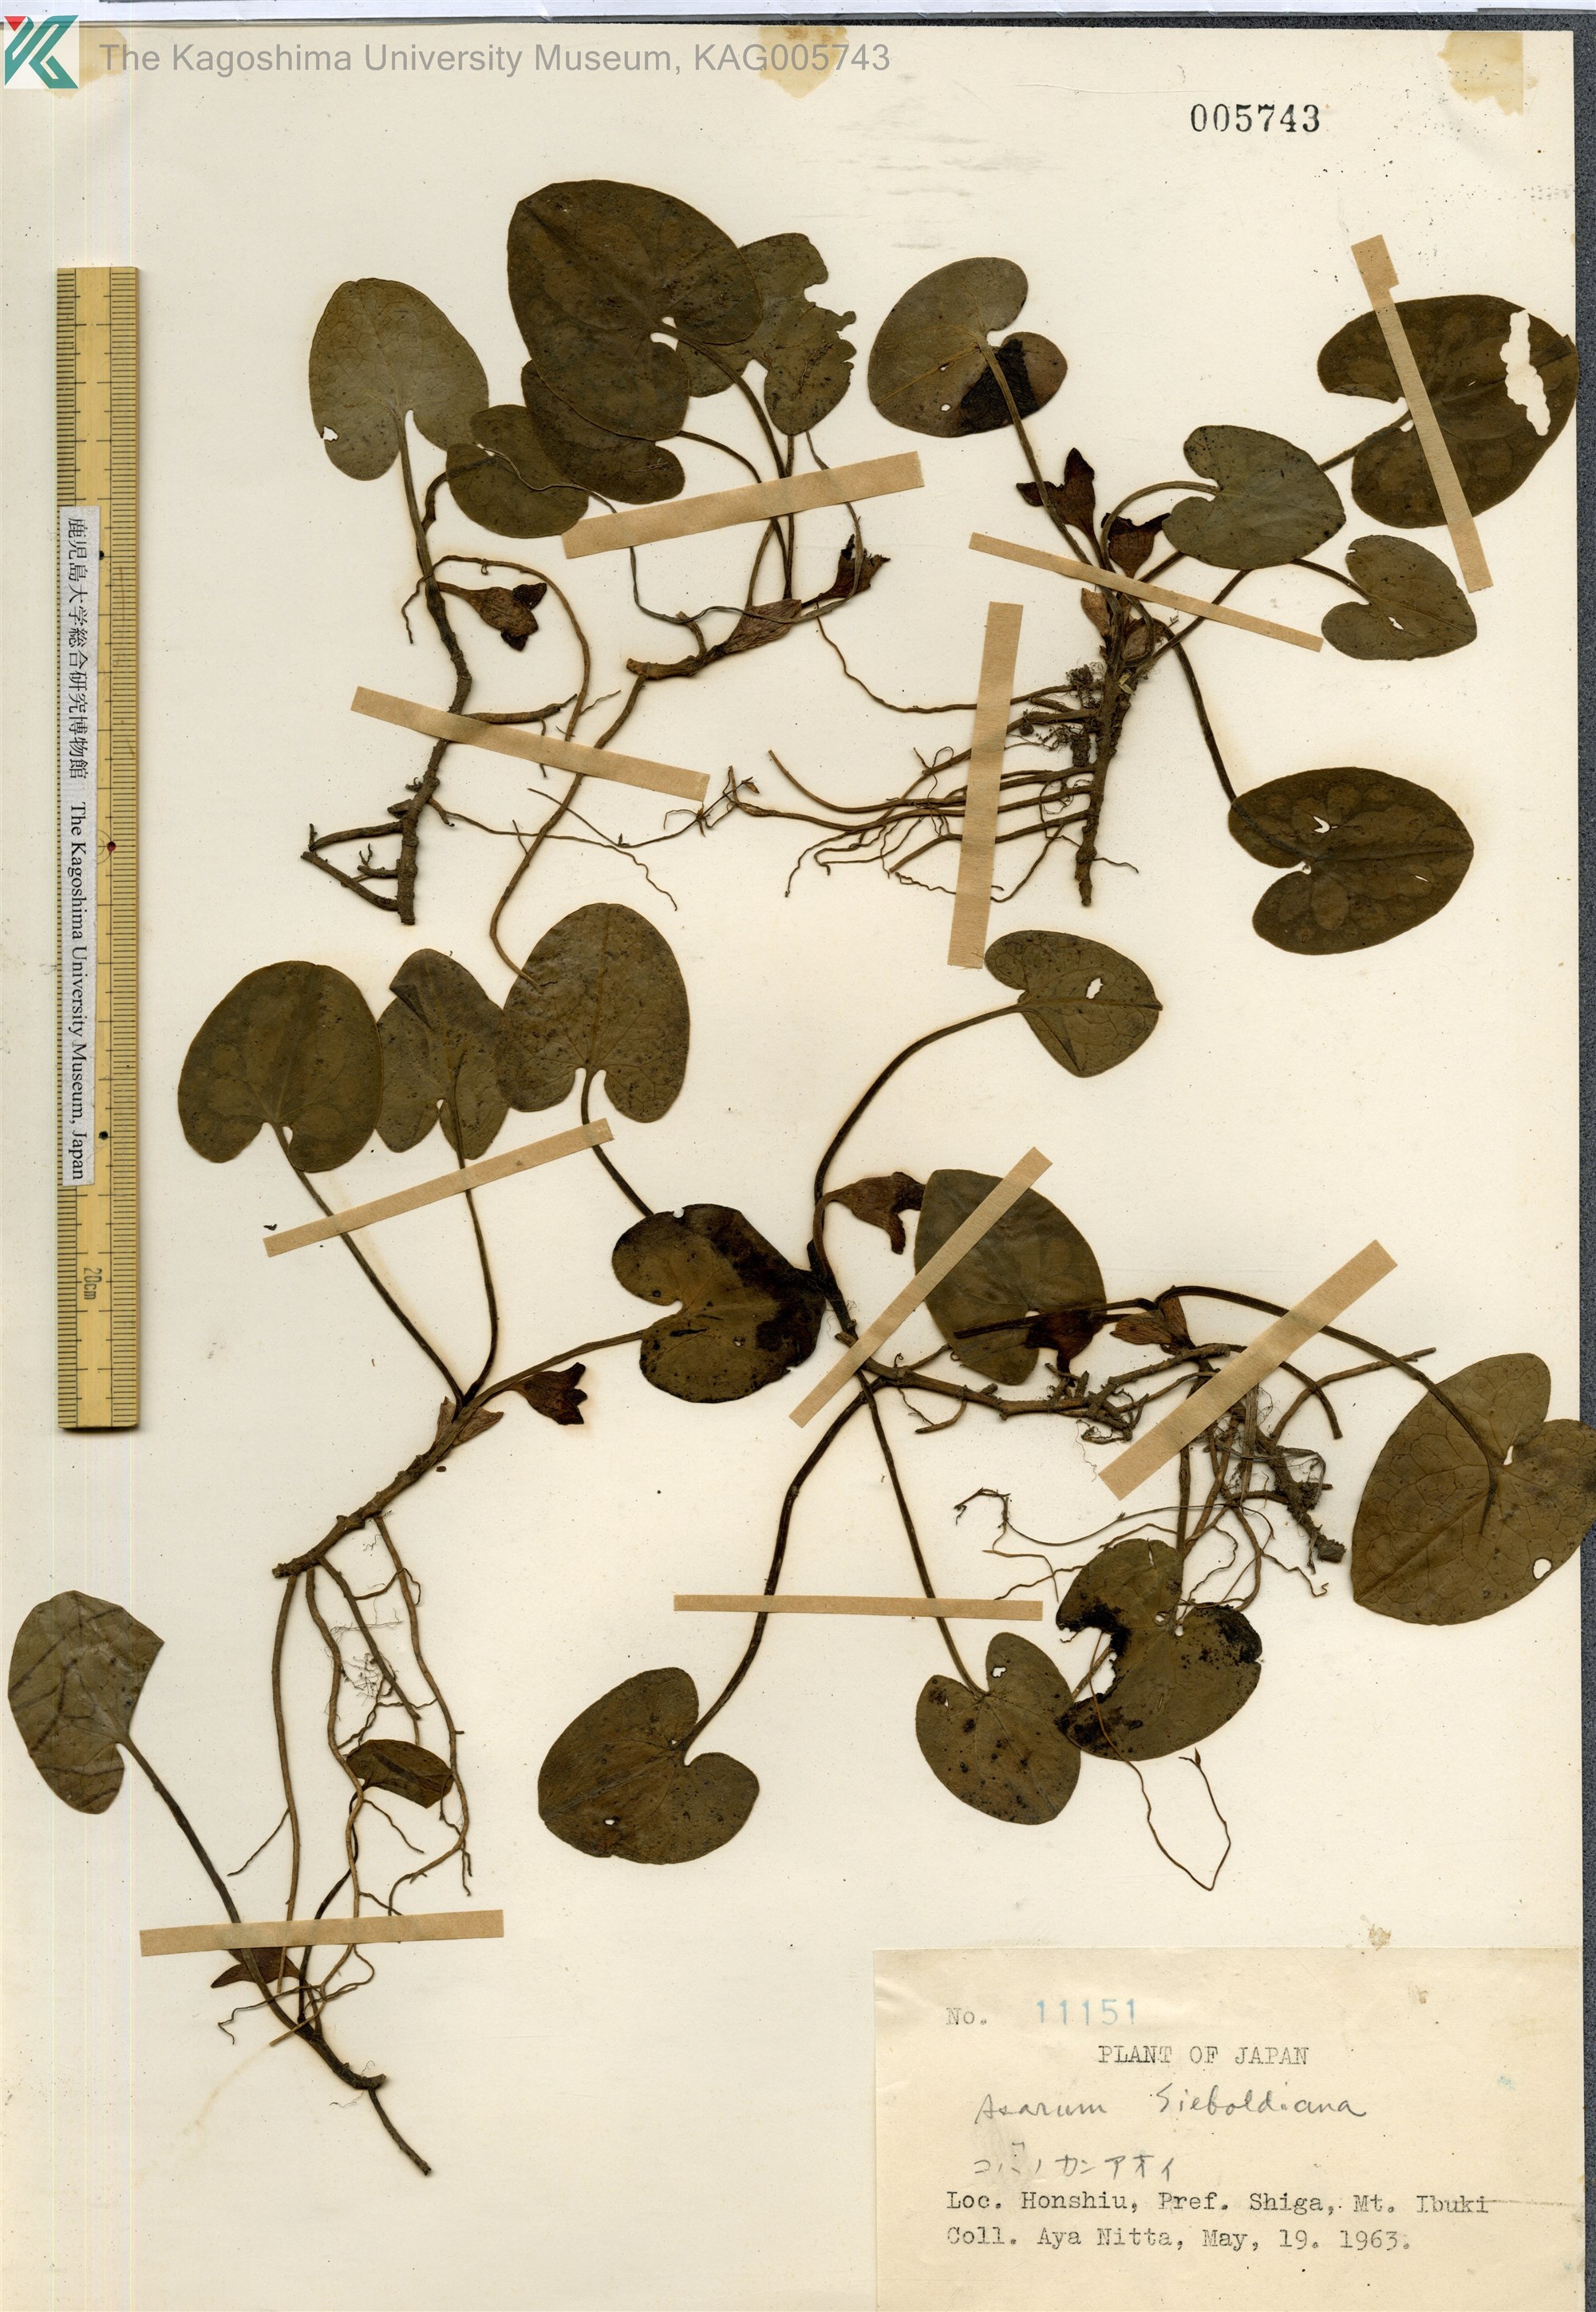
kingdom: Plantae
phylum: Tracheophyta
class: Magnoliopsida
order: Piperales
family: Aristolochiaceae
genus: Asarum
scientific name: Asarum variegatum
